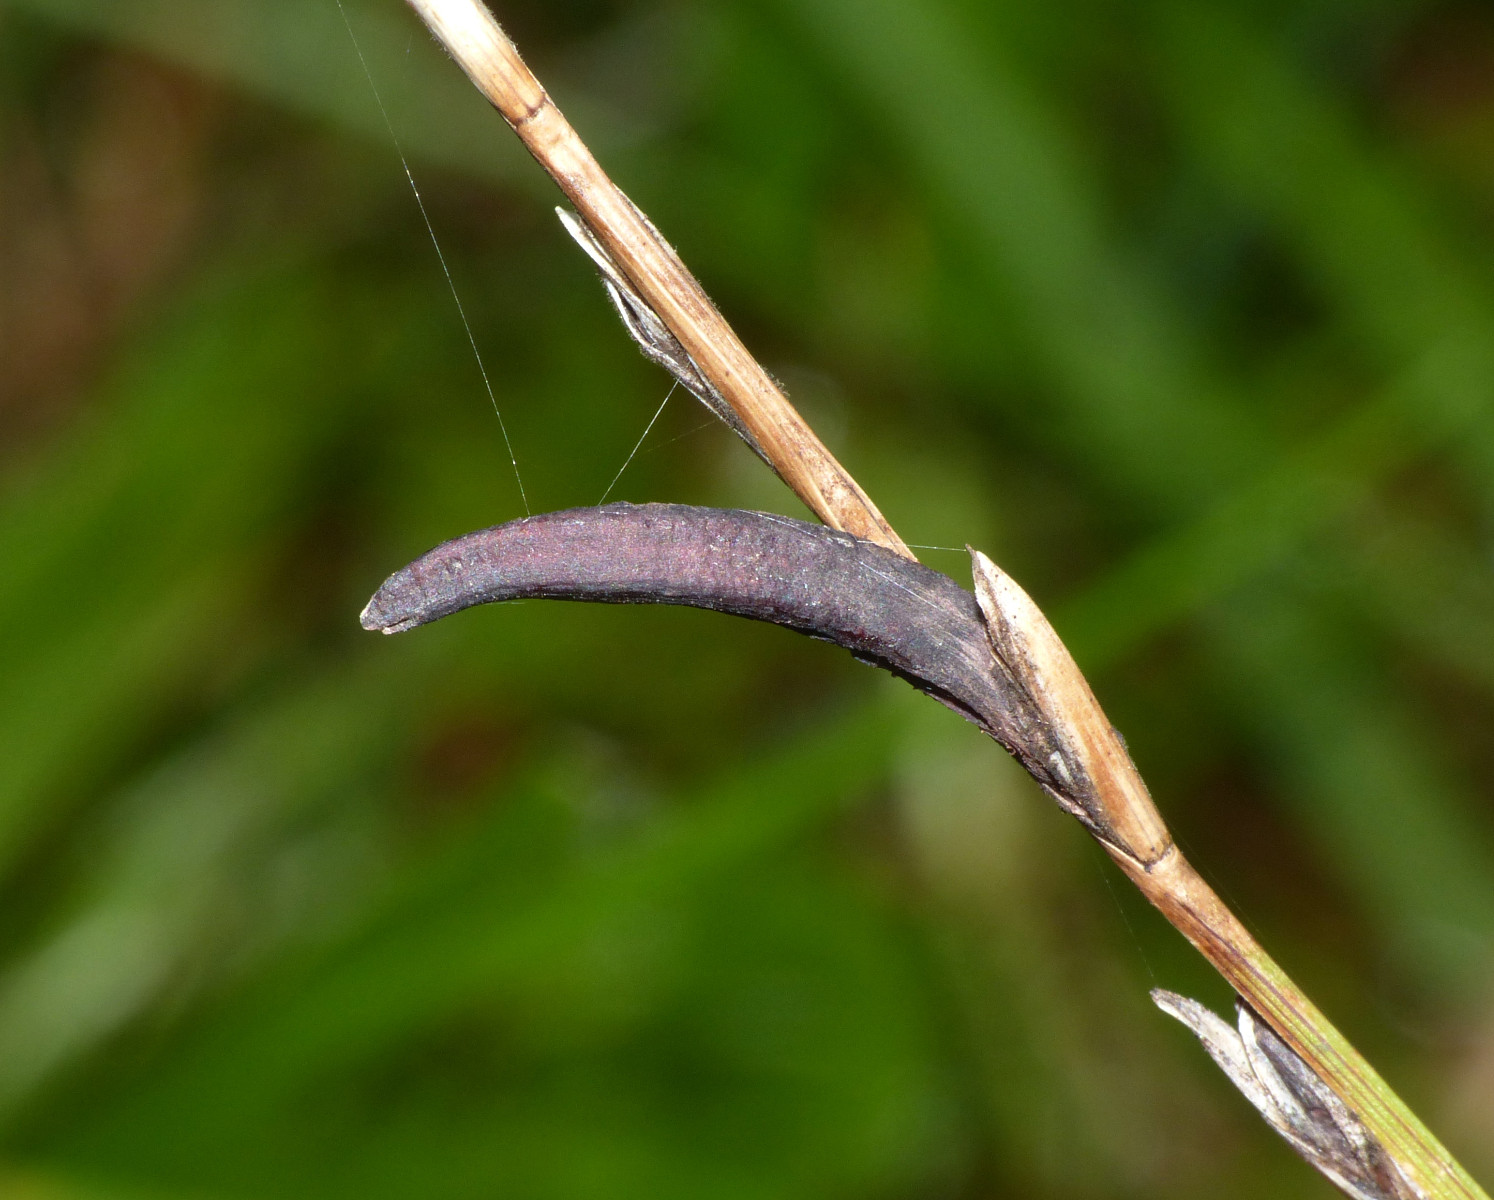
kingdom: Fungi
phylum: Ascomycota
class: Sordariomycetes
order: Hypocreales
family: Clavicipitaceae
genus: Claviceps
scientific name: Claviceps purpurea
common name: almindelig meldrøjer
